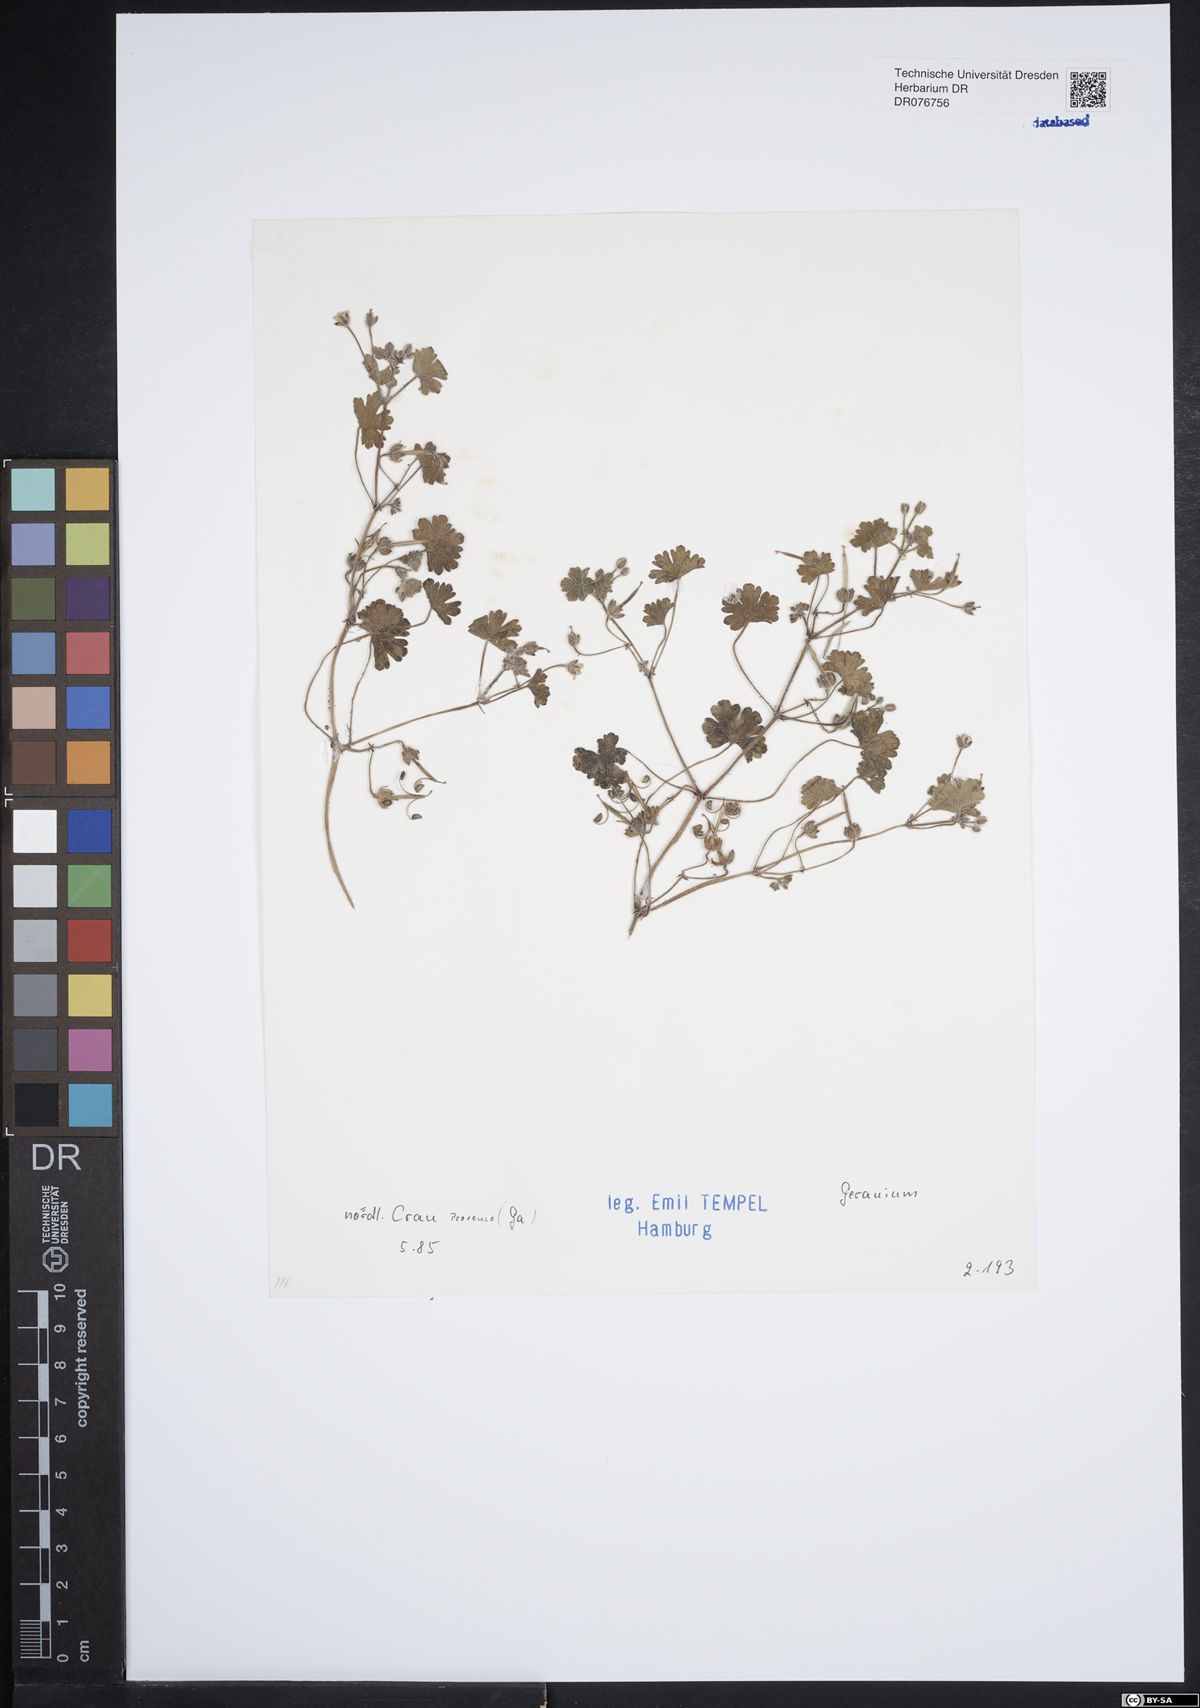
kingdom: Plantae
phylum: Tracheophyta
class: Magnoliopsida
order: Geraniales
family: Geraniaceae
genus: Geranium
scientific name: Geranium
